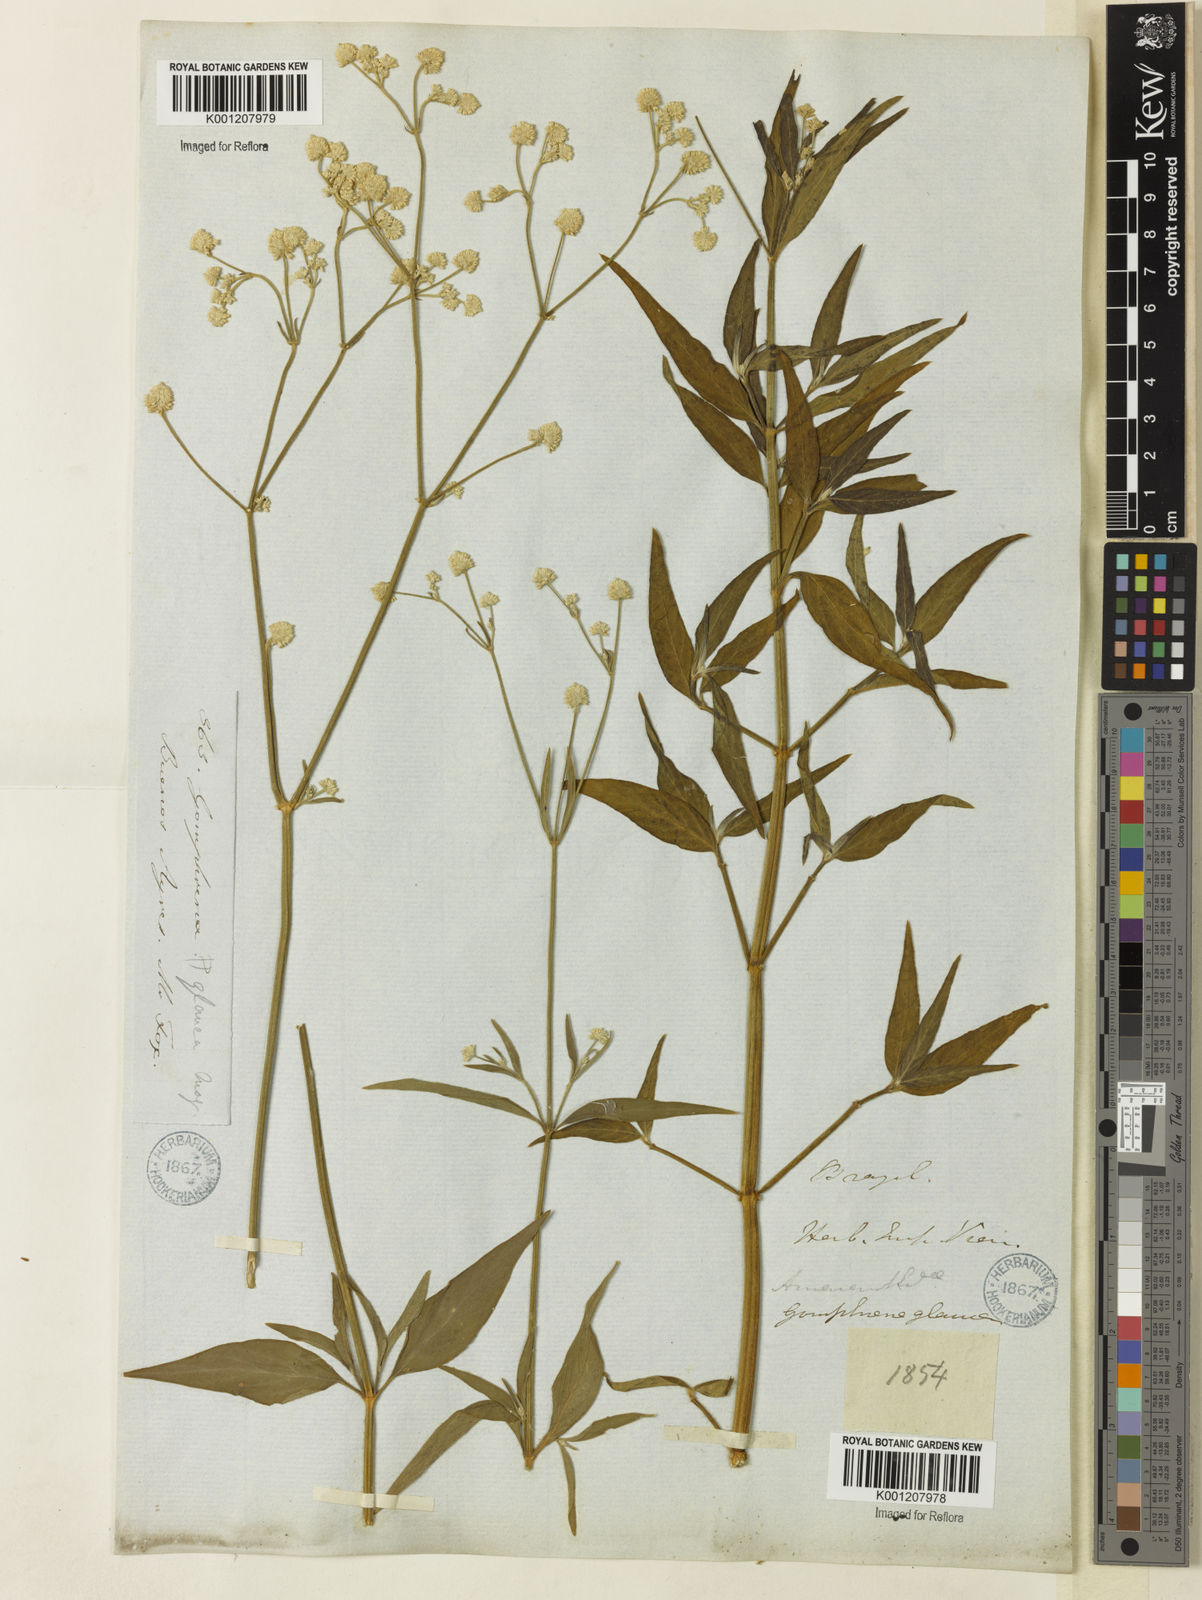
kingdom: Plantae
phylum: Tracheophyta
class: Magnoliopsida
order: Caryophyllales
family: Amaranthaceae
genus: Pfaffia
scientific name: Pfaffia
